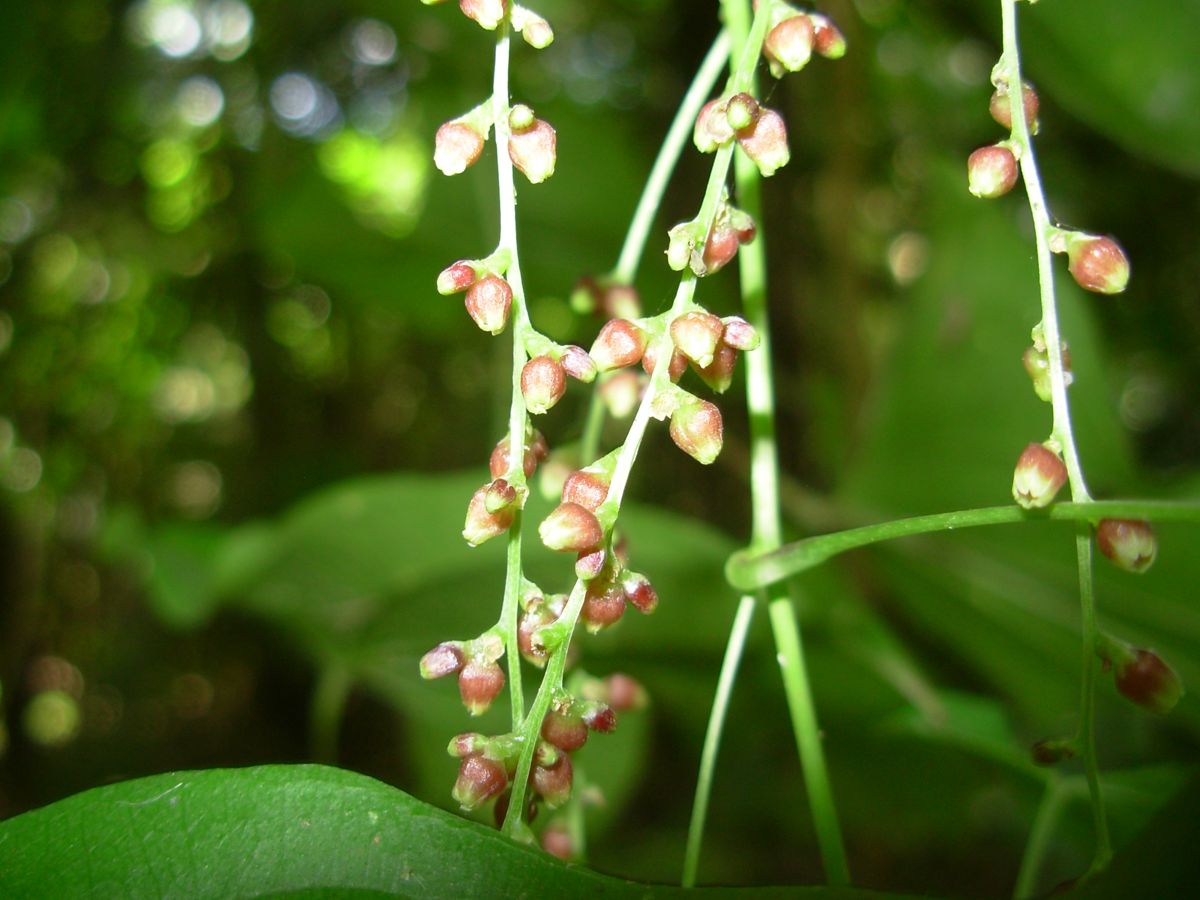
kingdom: Plantae
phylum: Tracheophyta
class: Liliopsida
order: Dioscoreales
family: Dioscoreaceae
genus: Dioscorea
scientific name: Dioscorea
